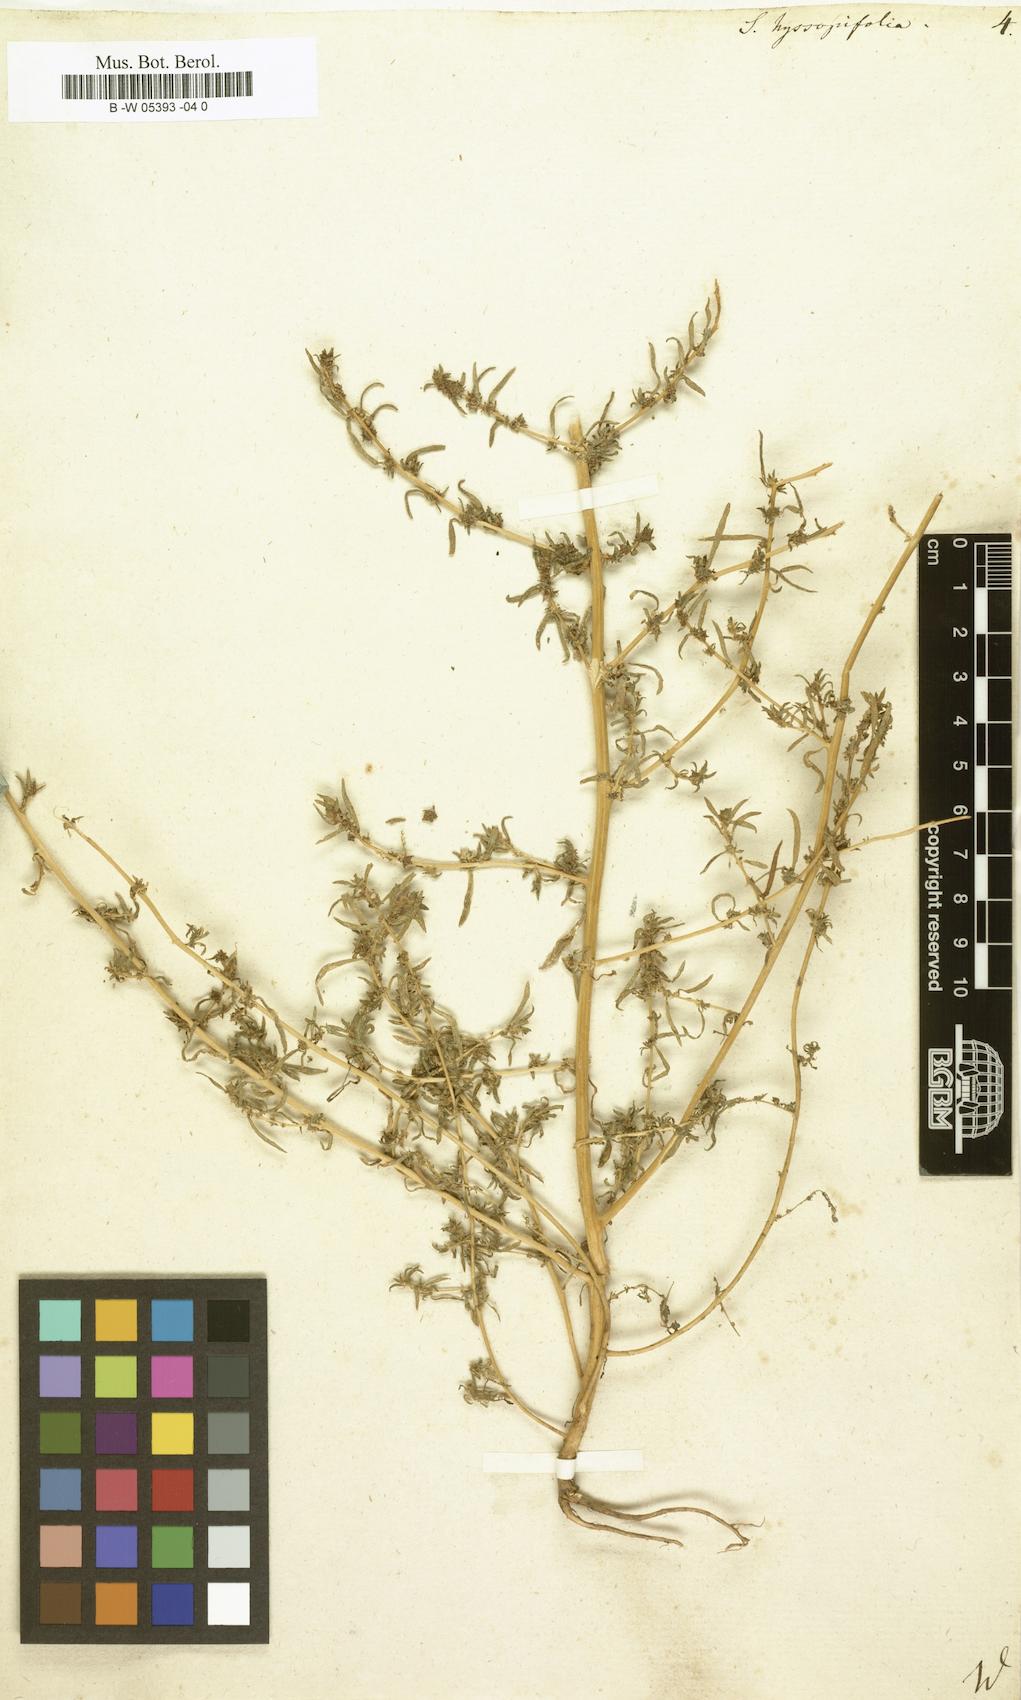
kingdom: Plantae
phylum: Tracheophyta
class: Magnoliopsida
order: Caryophyllales
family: Amaranthaceae
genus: Bassia
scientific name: Bassia hyssopifolia
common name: Fivehorn smotherweed
